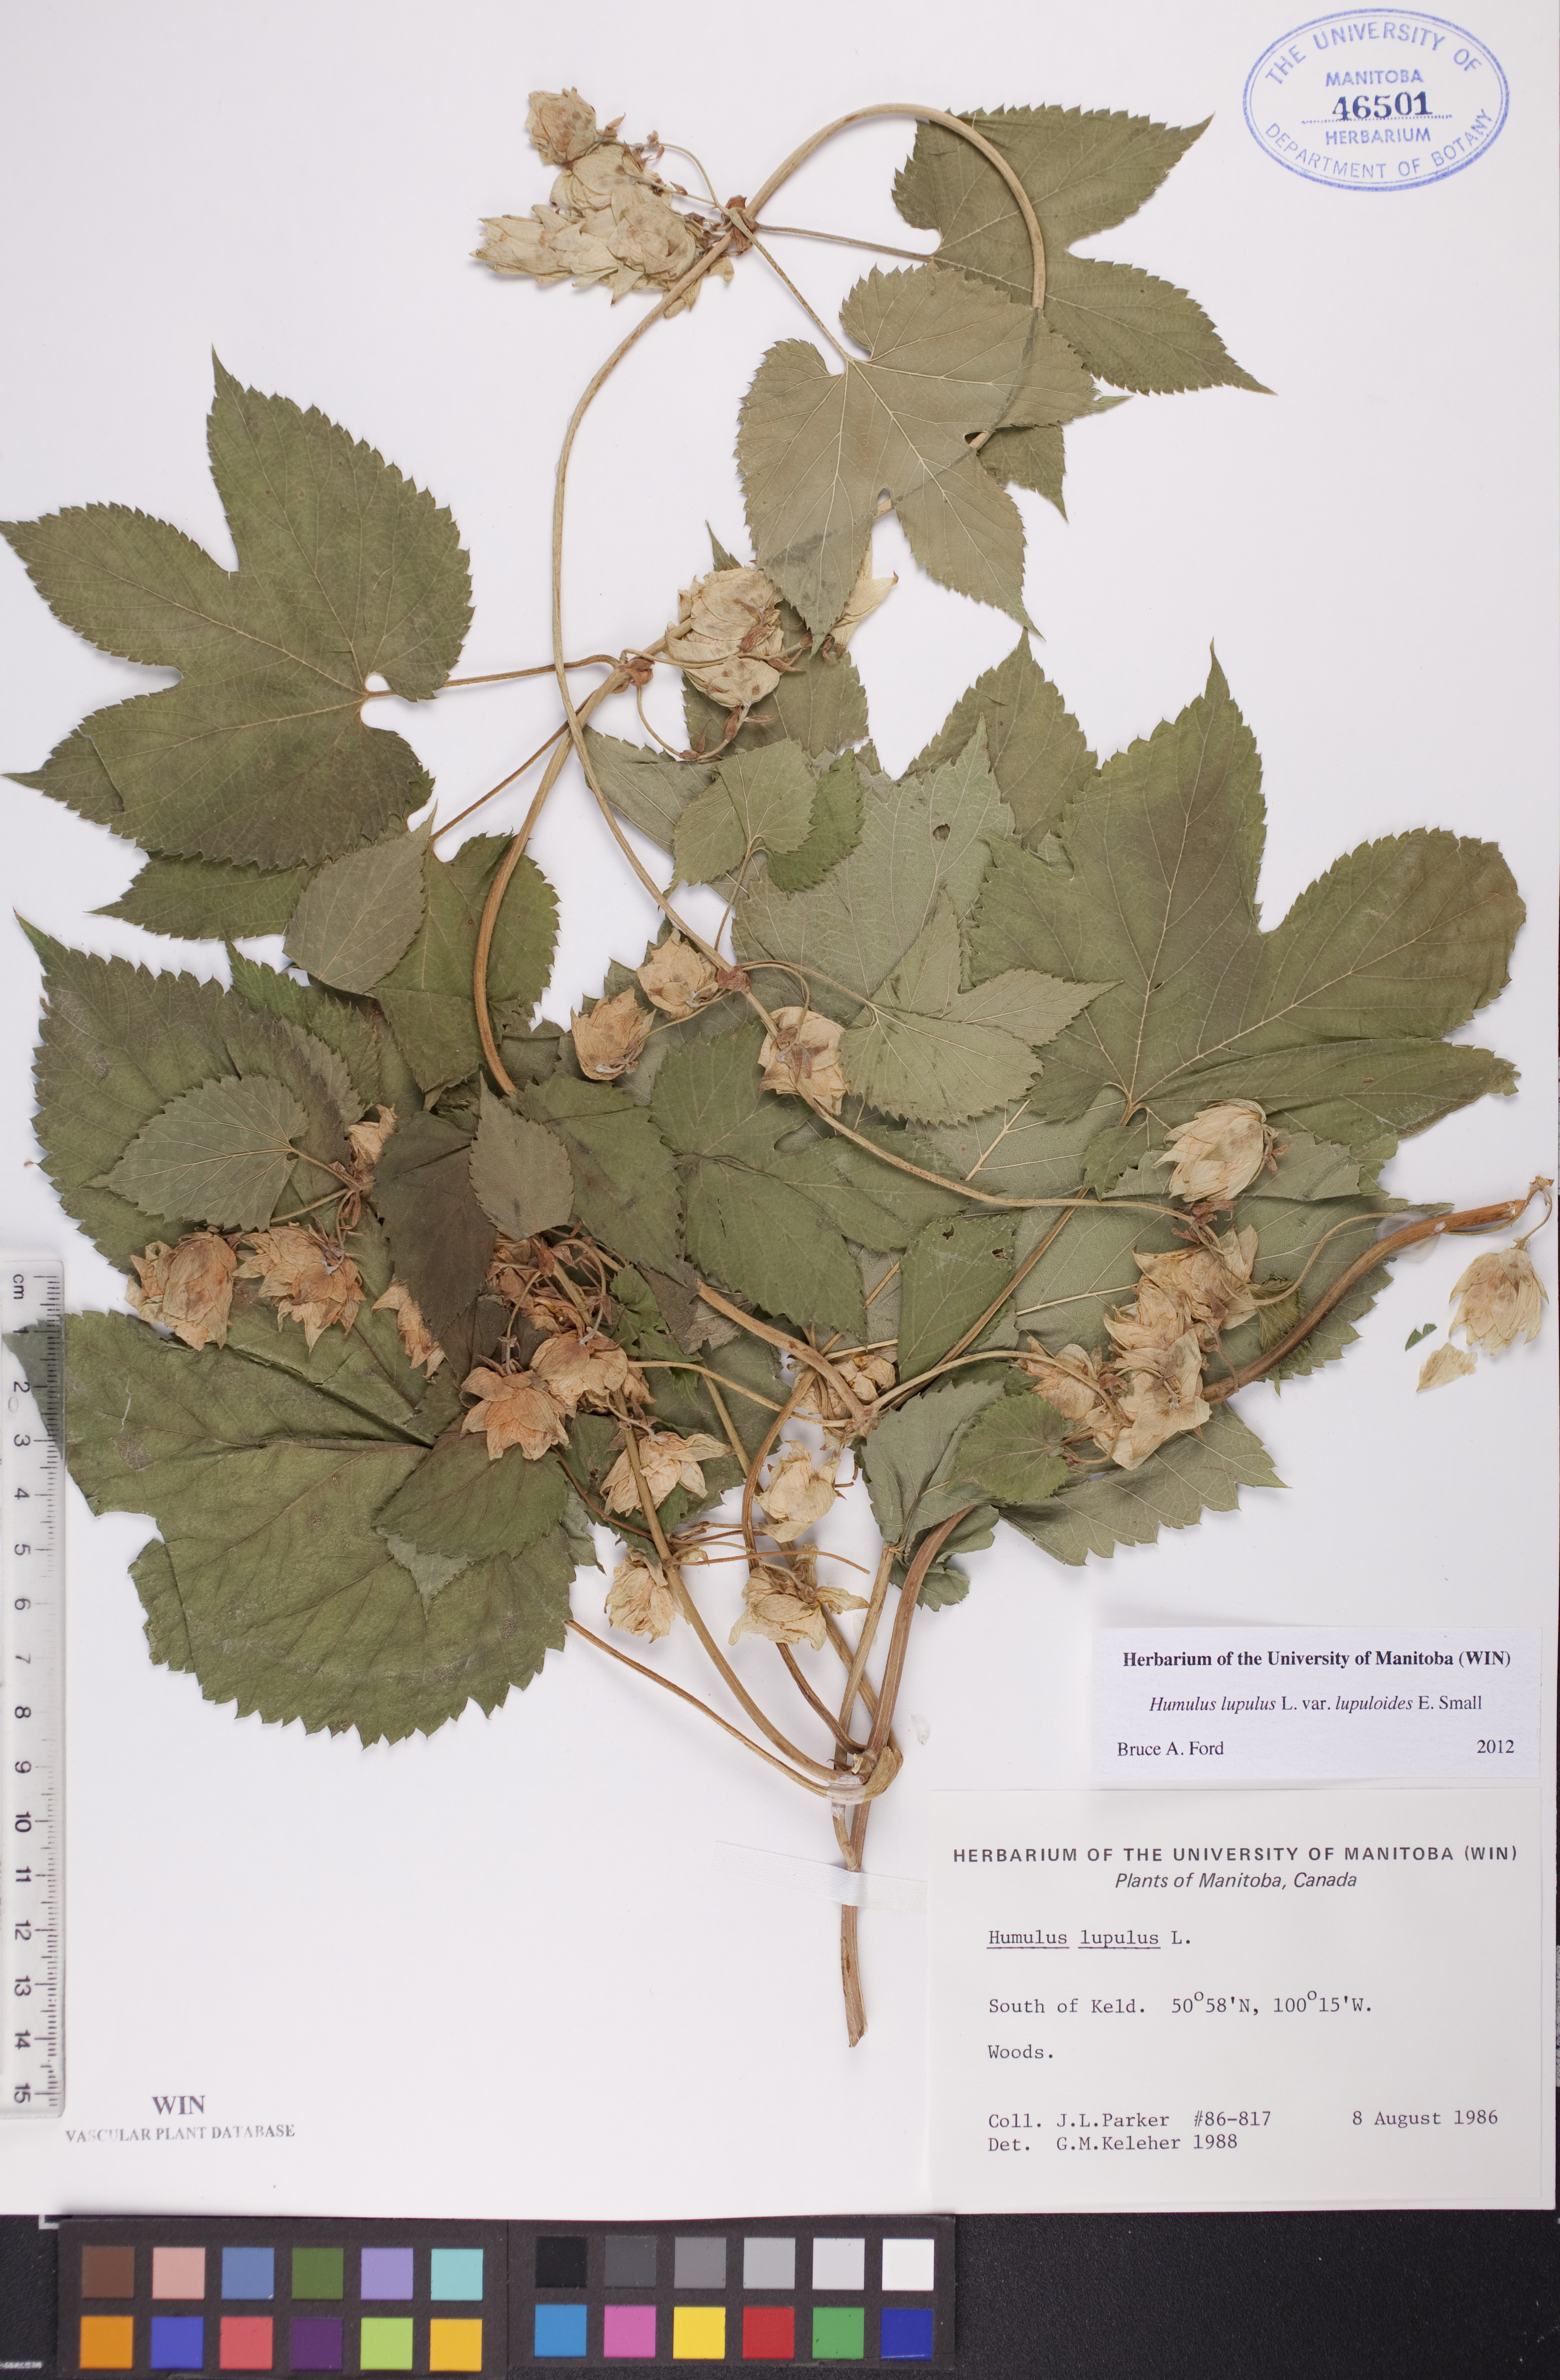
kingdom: Plantae
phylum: Tracheophyta
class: Magnoliopsida
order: Rosales
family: Cannabaceae
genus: Humulus
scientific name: Humulus americanus
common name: American hops
